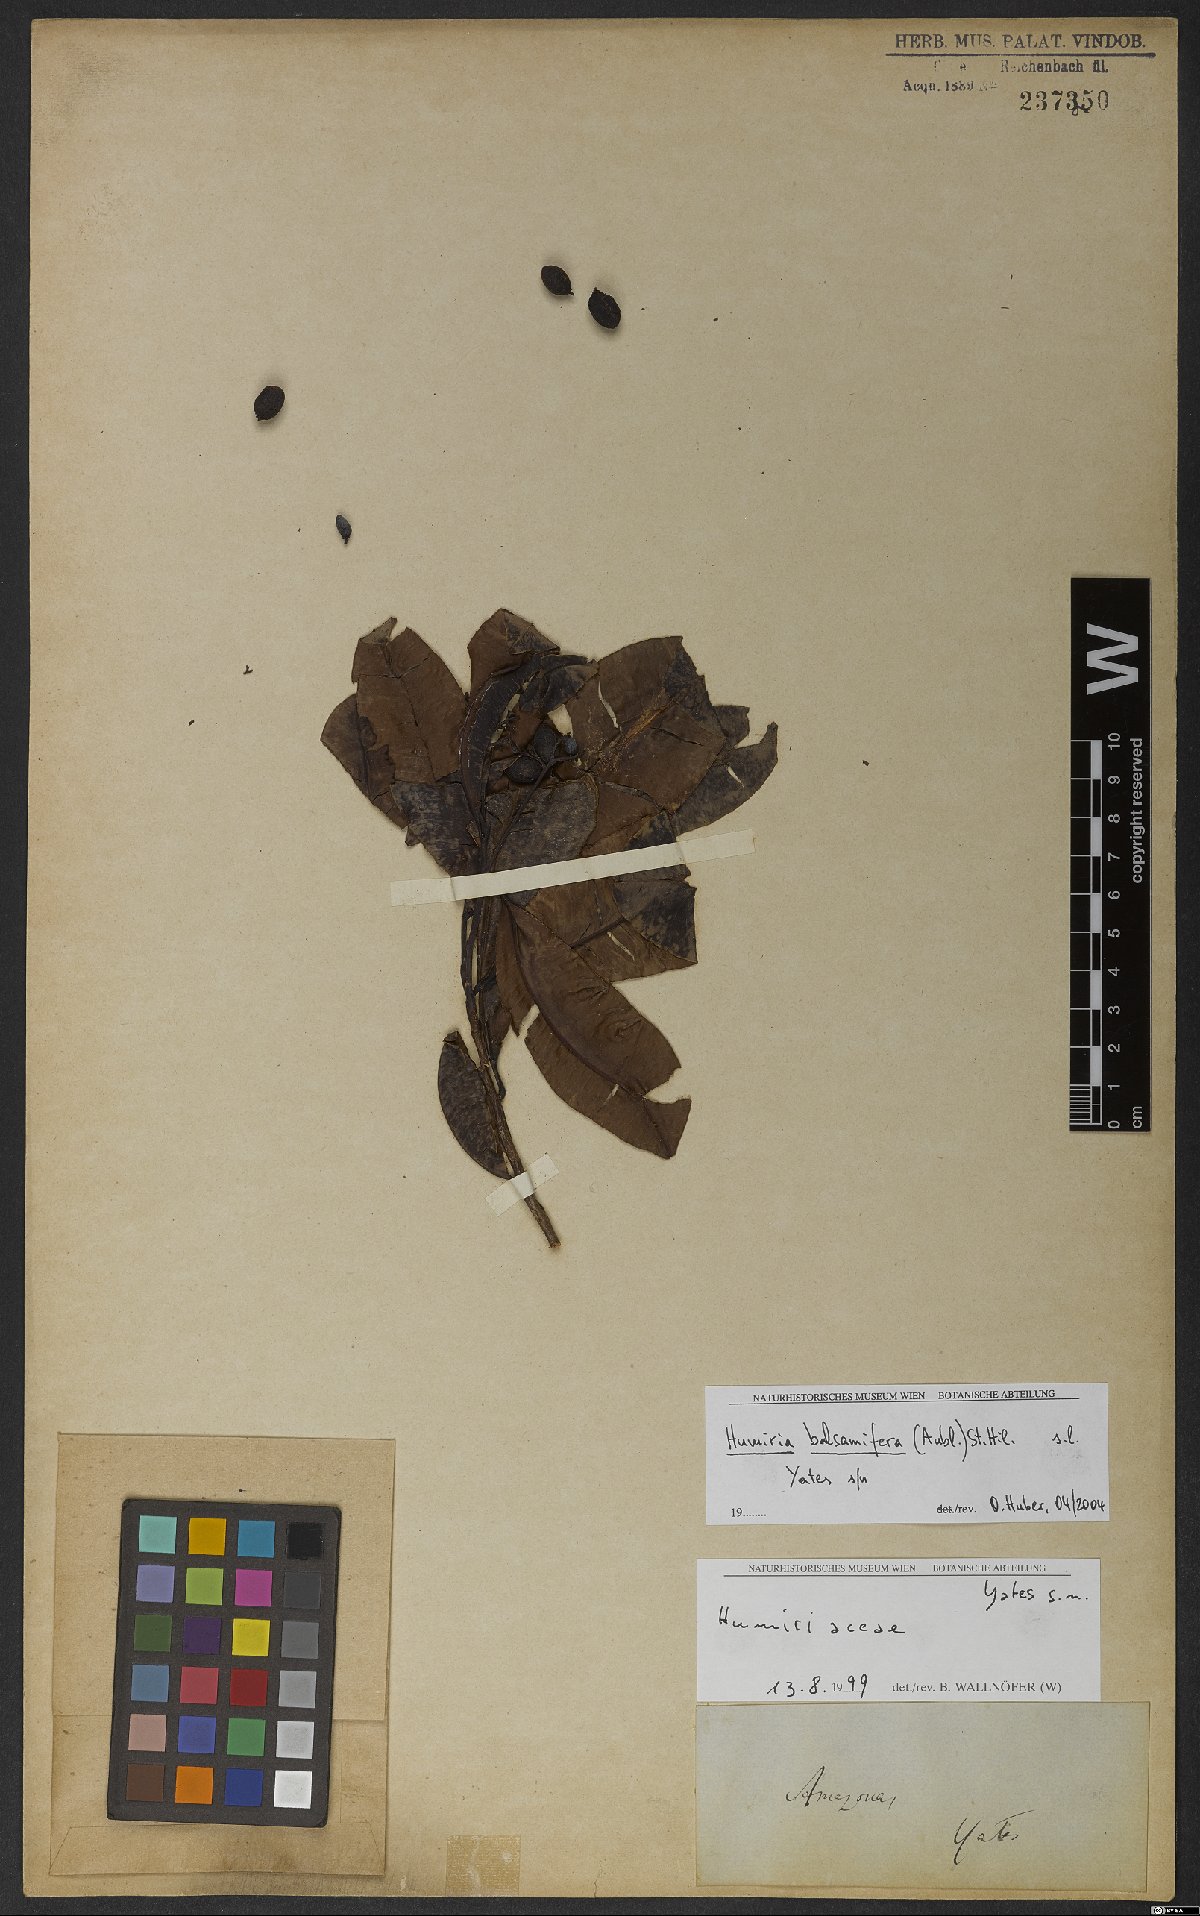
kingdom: Plantae
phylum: Tracheophyta
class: Magnoliopsida
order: Malpighiales
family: Humiriaceae
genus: Humiria
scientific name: Humiria balsamifera
